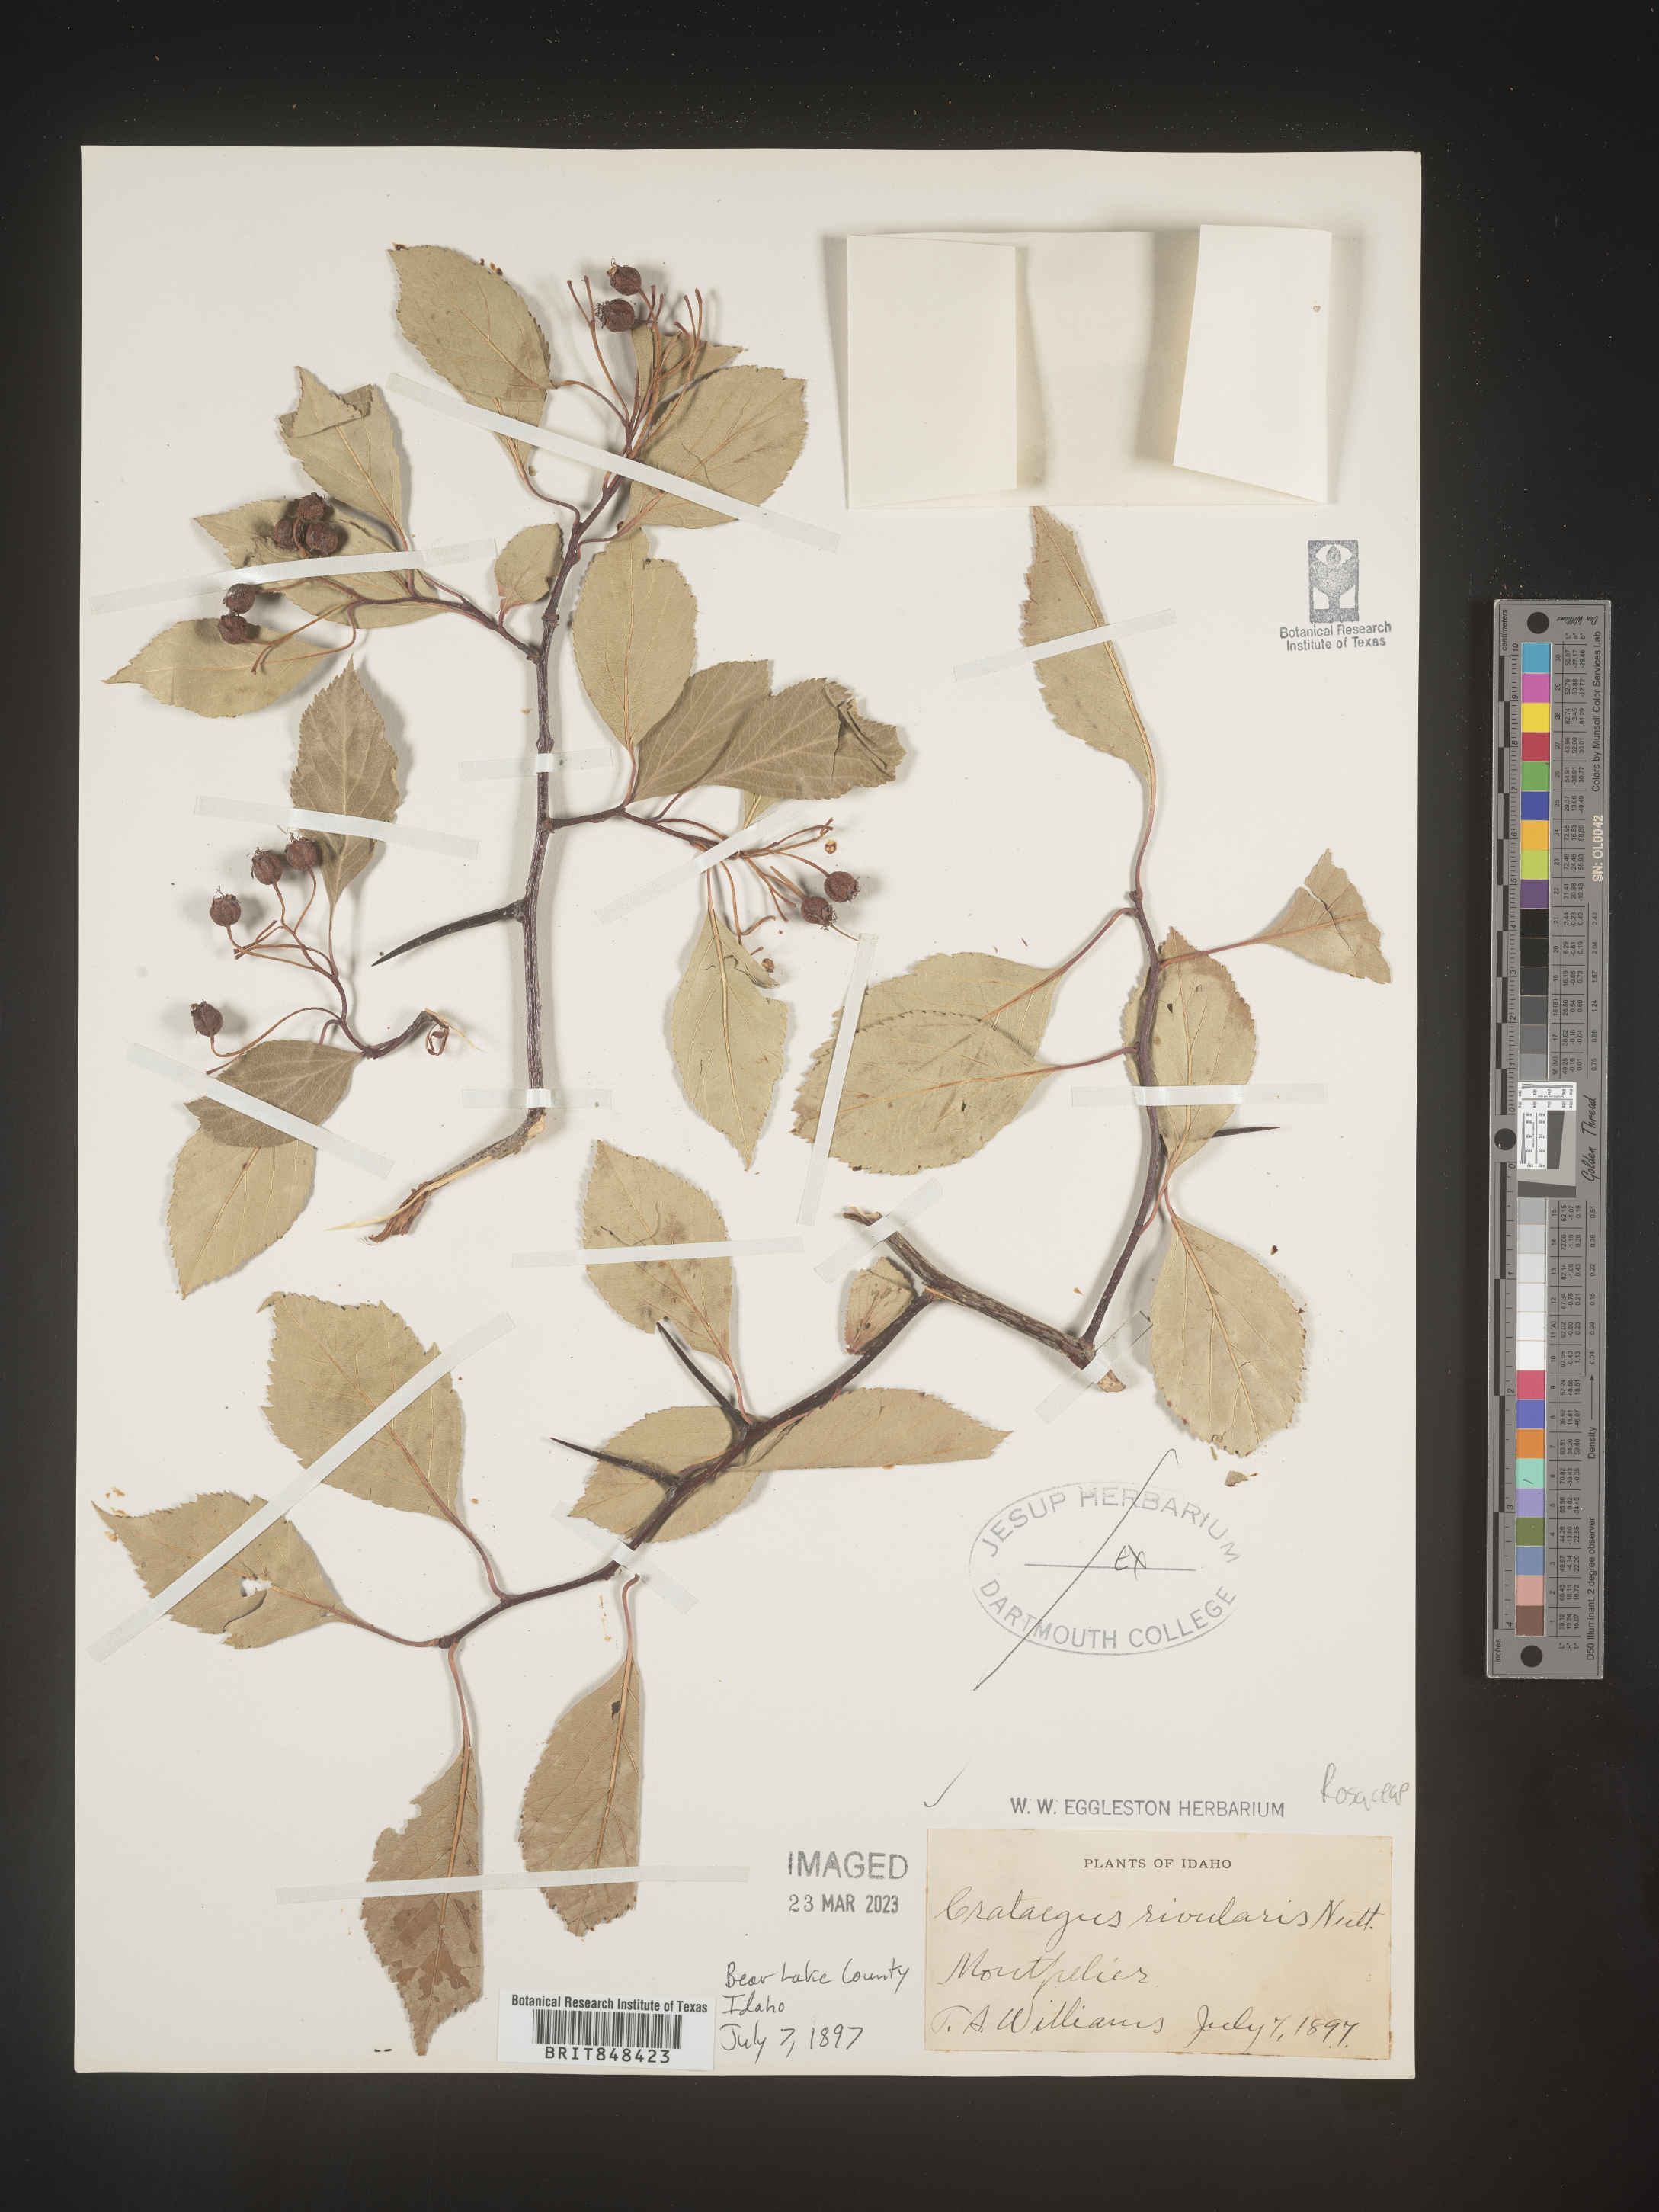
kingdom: Plantae
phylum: Tracheophyta
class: Magnoliopsida
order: Rosales
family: Rosaceae
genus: Crataegus
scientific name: Crataegus rivalis
